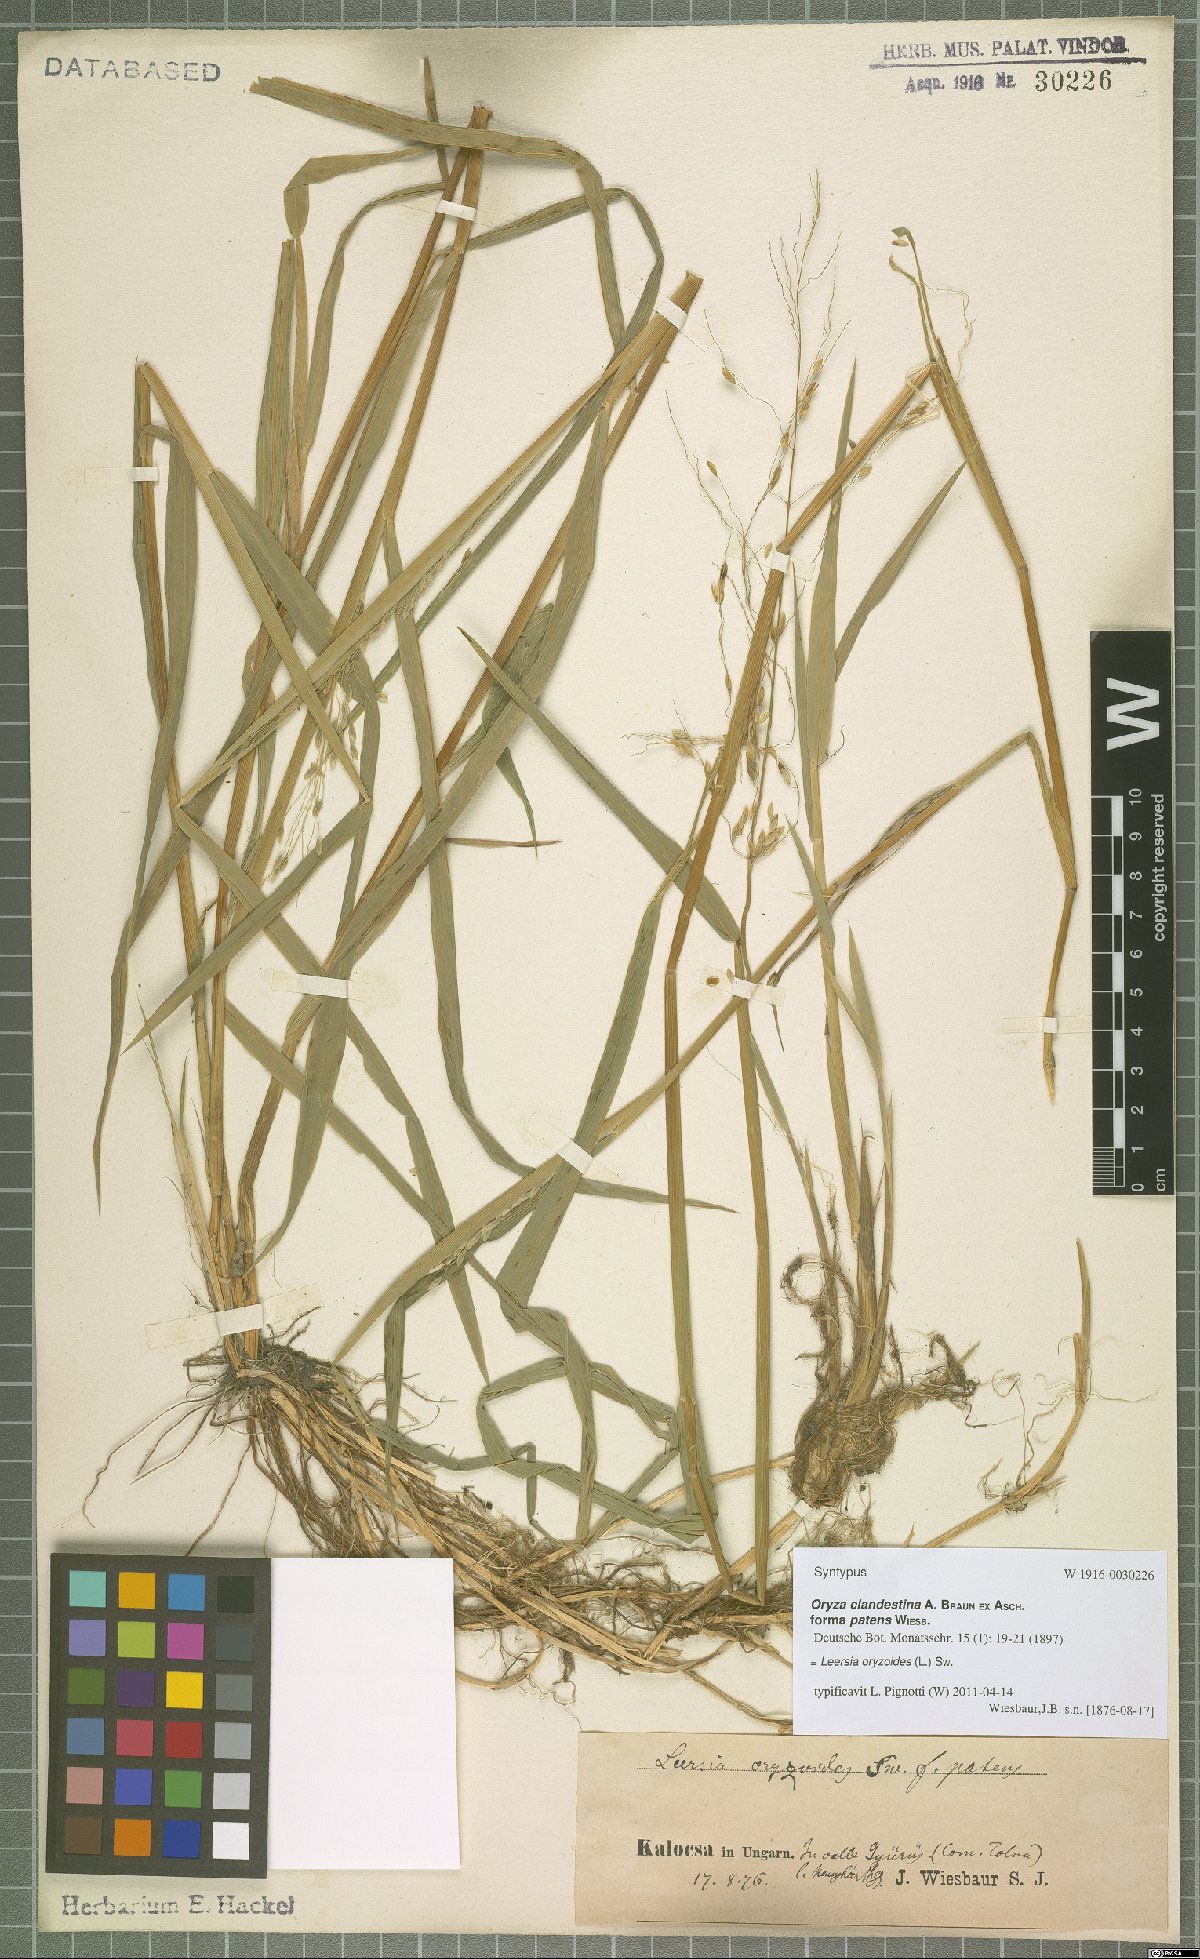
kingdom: Plantae
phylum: Tracheophyta
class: Liliopsida
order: Poales
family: Poaceae
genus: Leersia
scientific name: Leersia oryzoides
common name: Cut-grass
